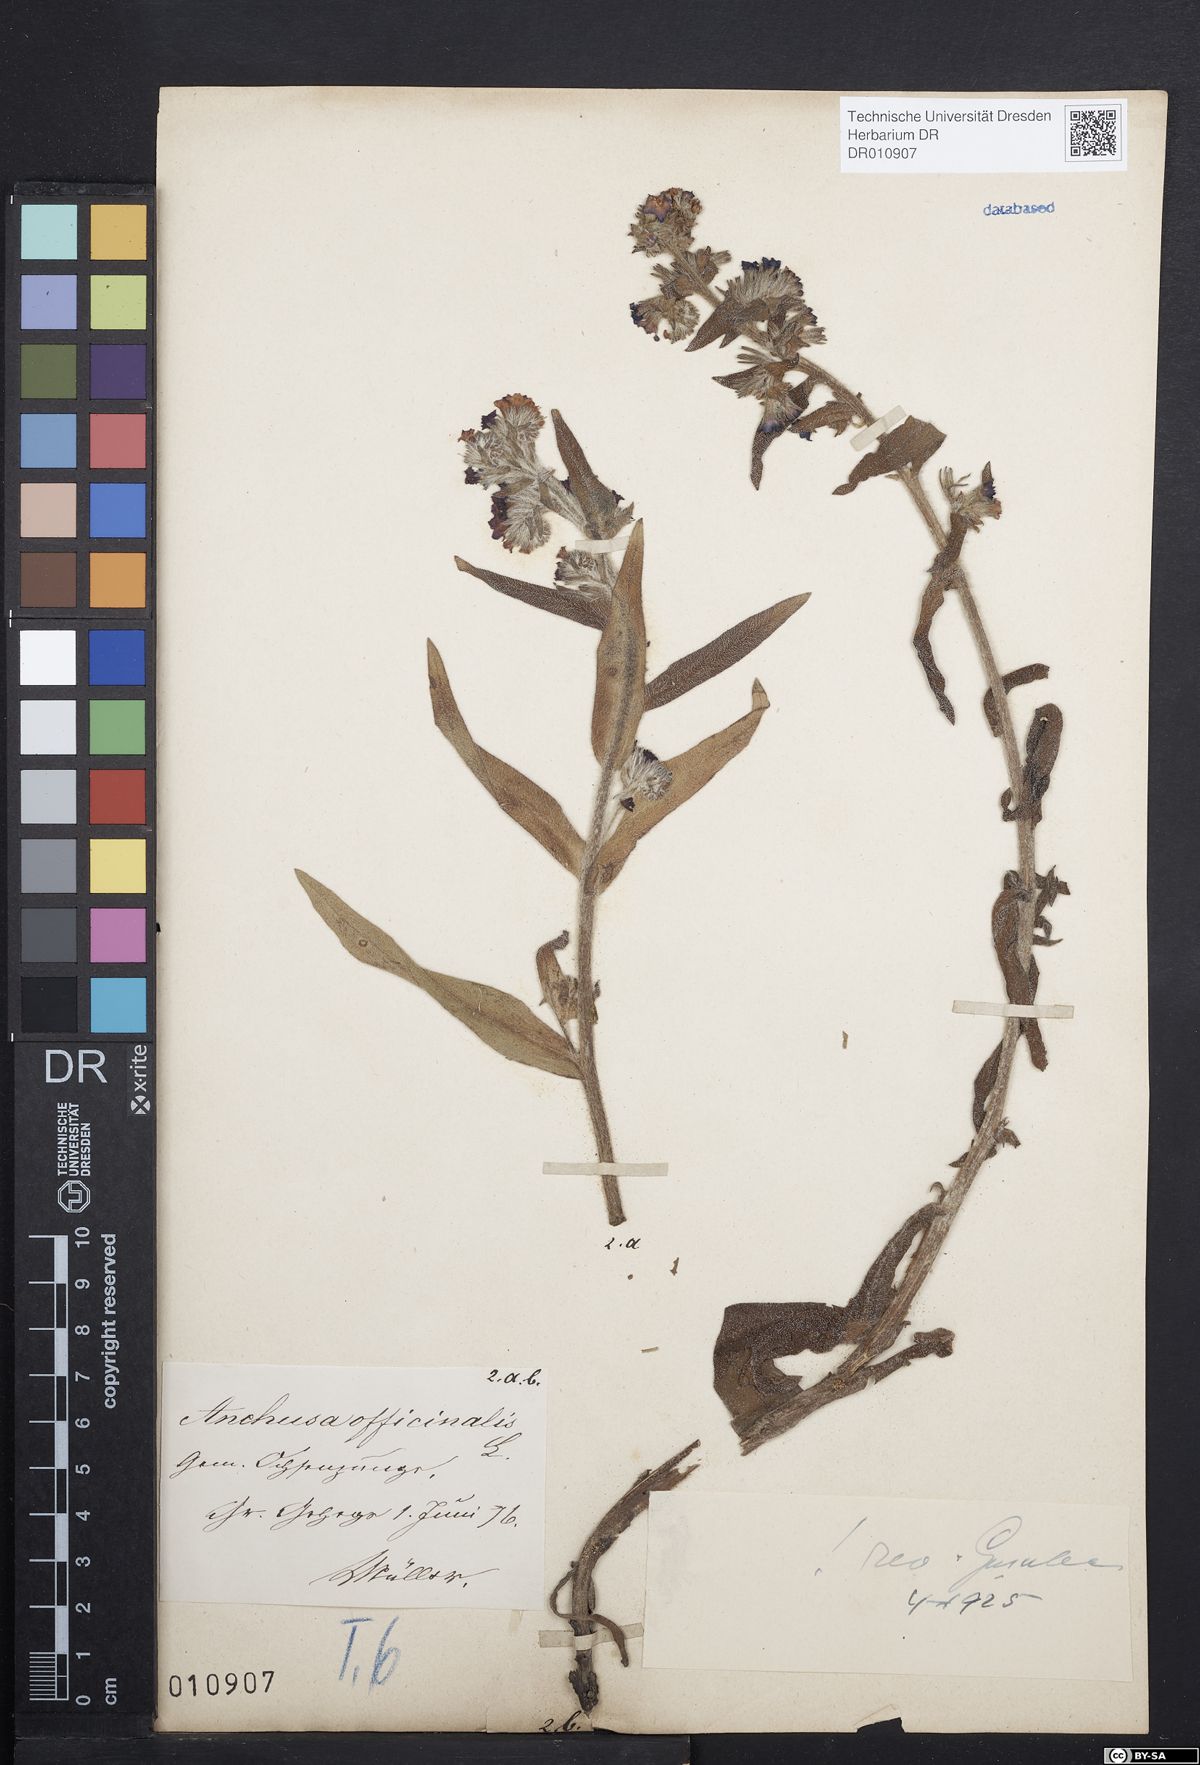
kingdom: Plantae
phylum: Tracheophyta
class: Magnoliopsida
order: Boraginales
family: Boraginaceae
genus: Anchusa
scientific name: Anchusa officinalis
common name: Alkanet
